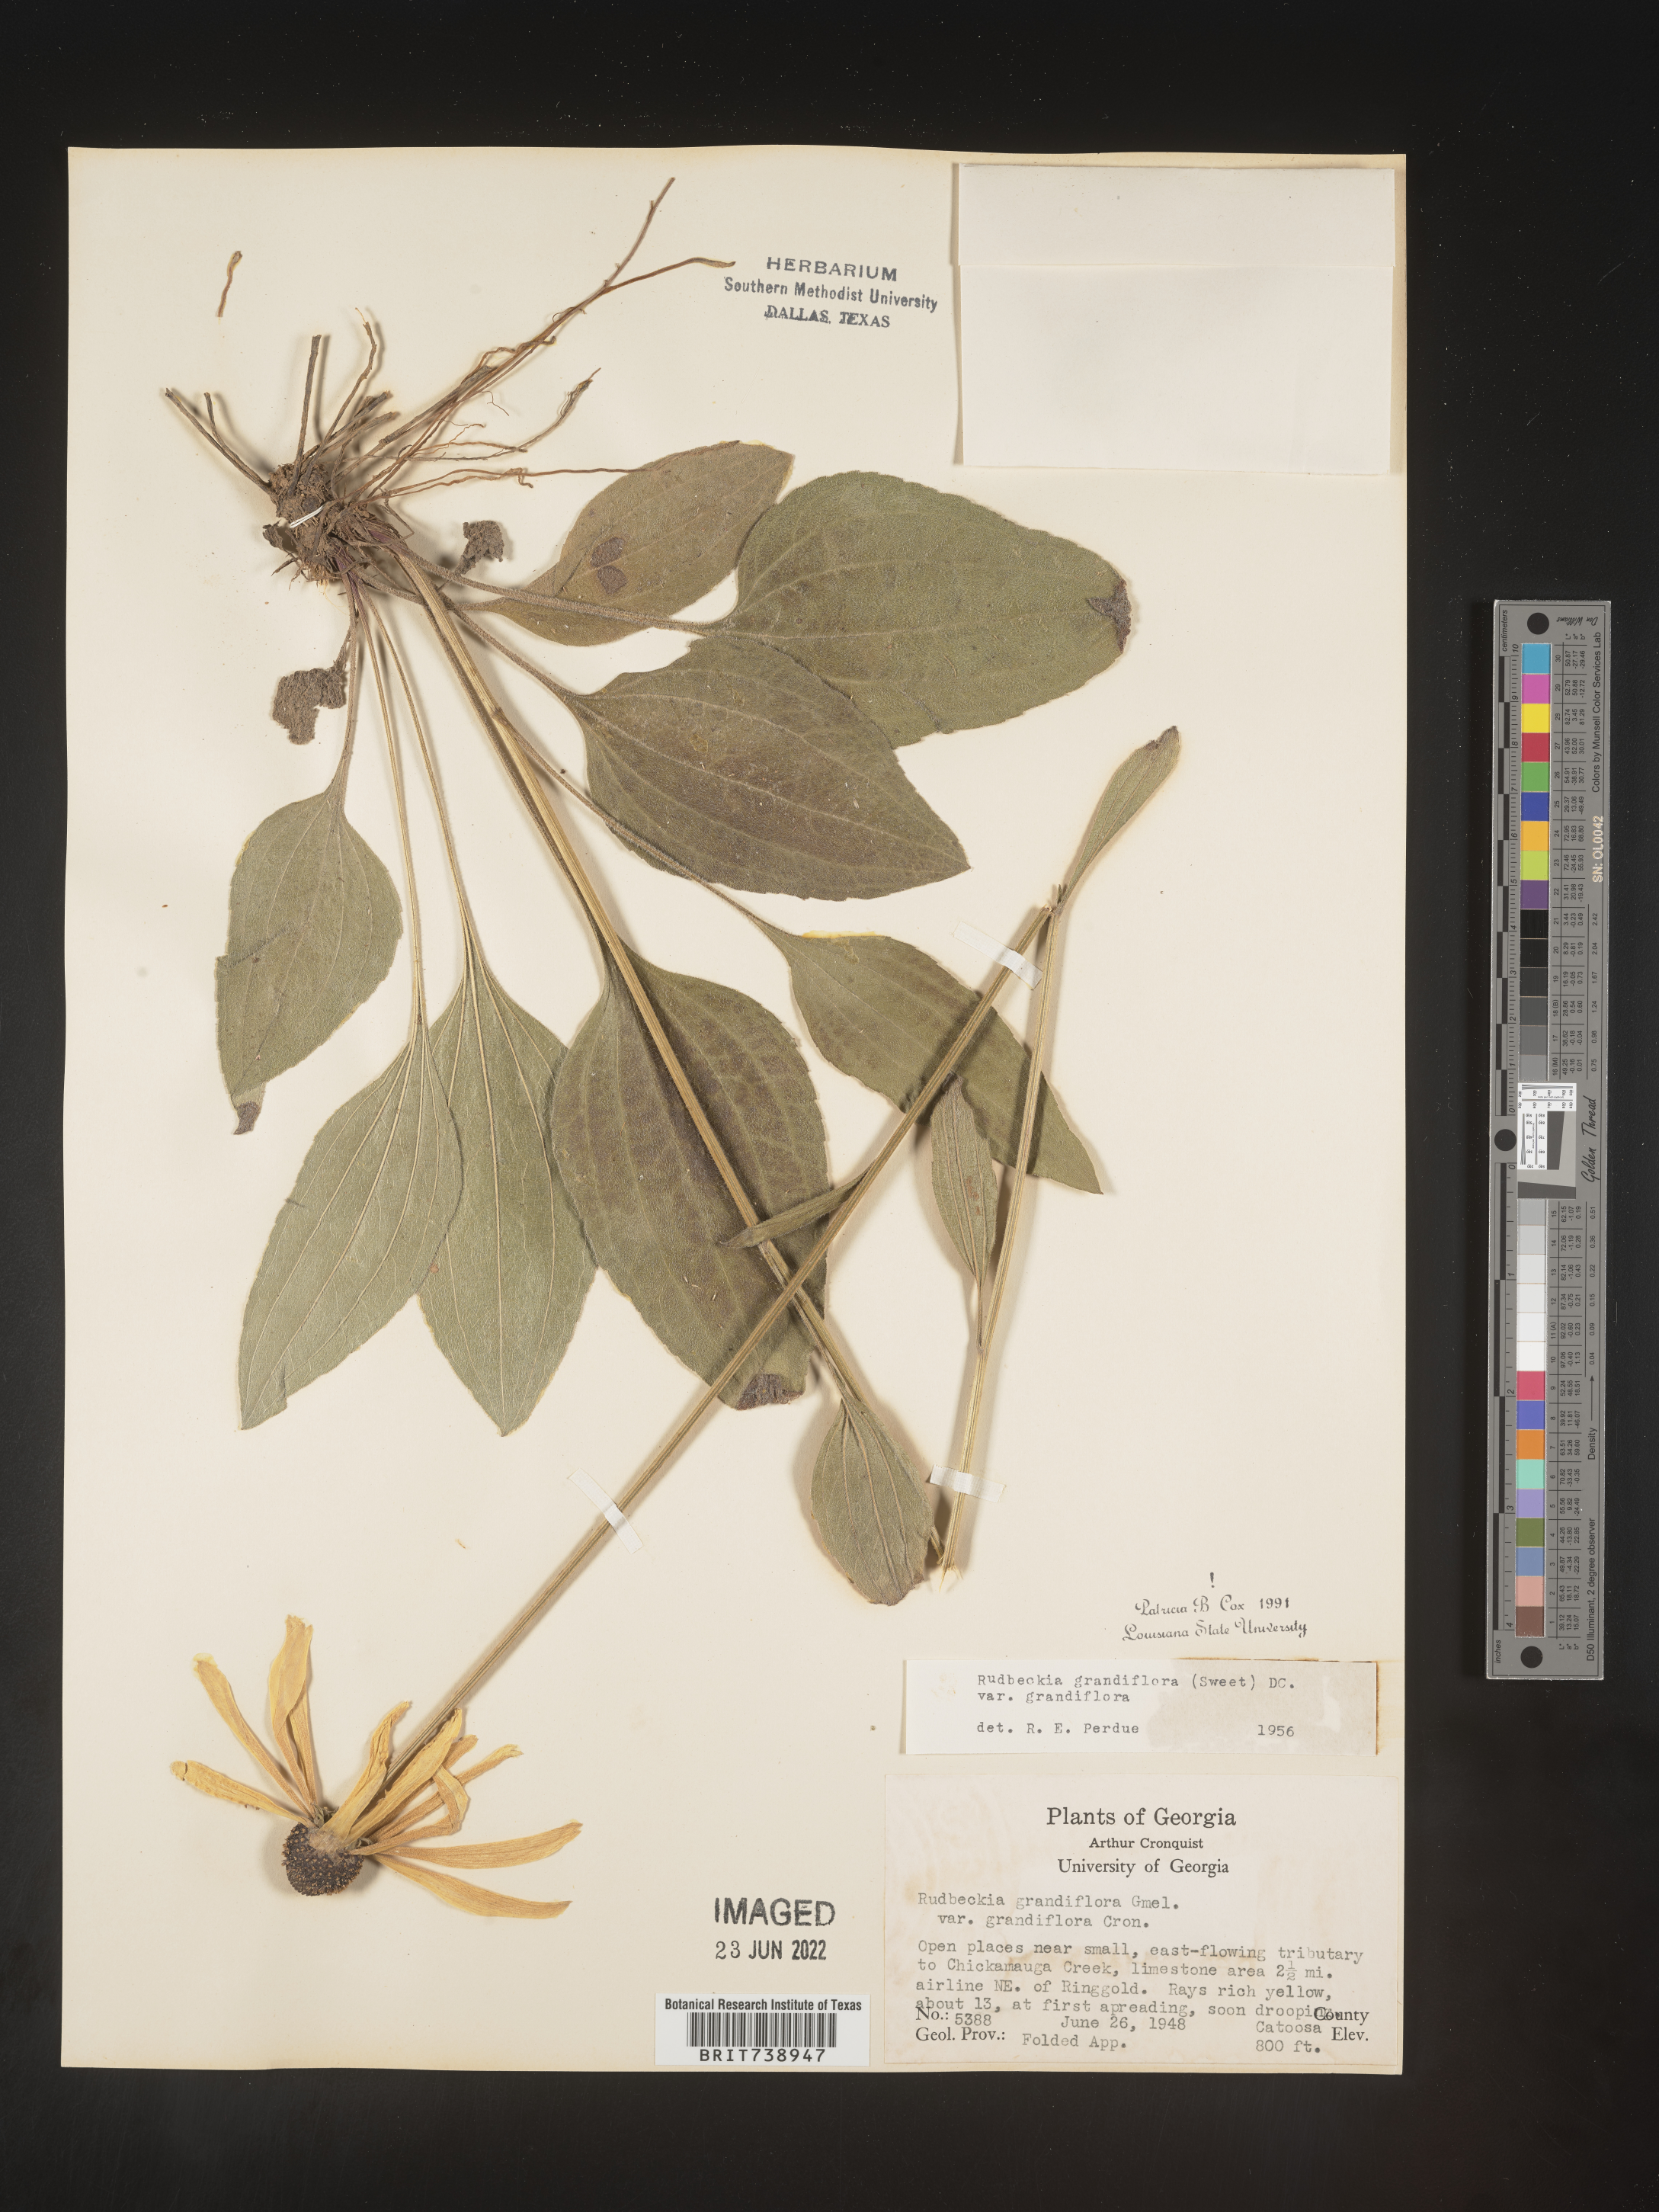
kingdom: Plantae
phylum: Tracheophyta
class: Magnoliopsida
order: Asterales
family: Asteraceae
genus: Rudbeckia
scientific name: Rudbeckia grandiflora
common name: Large-flowered coneflower
